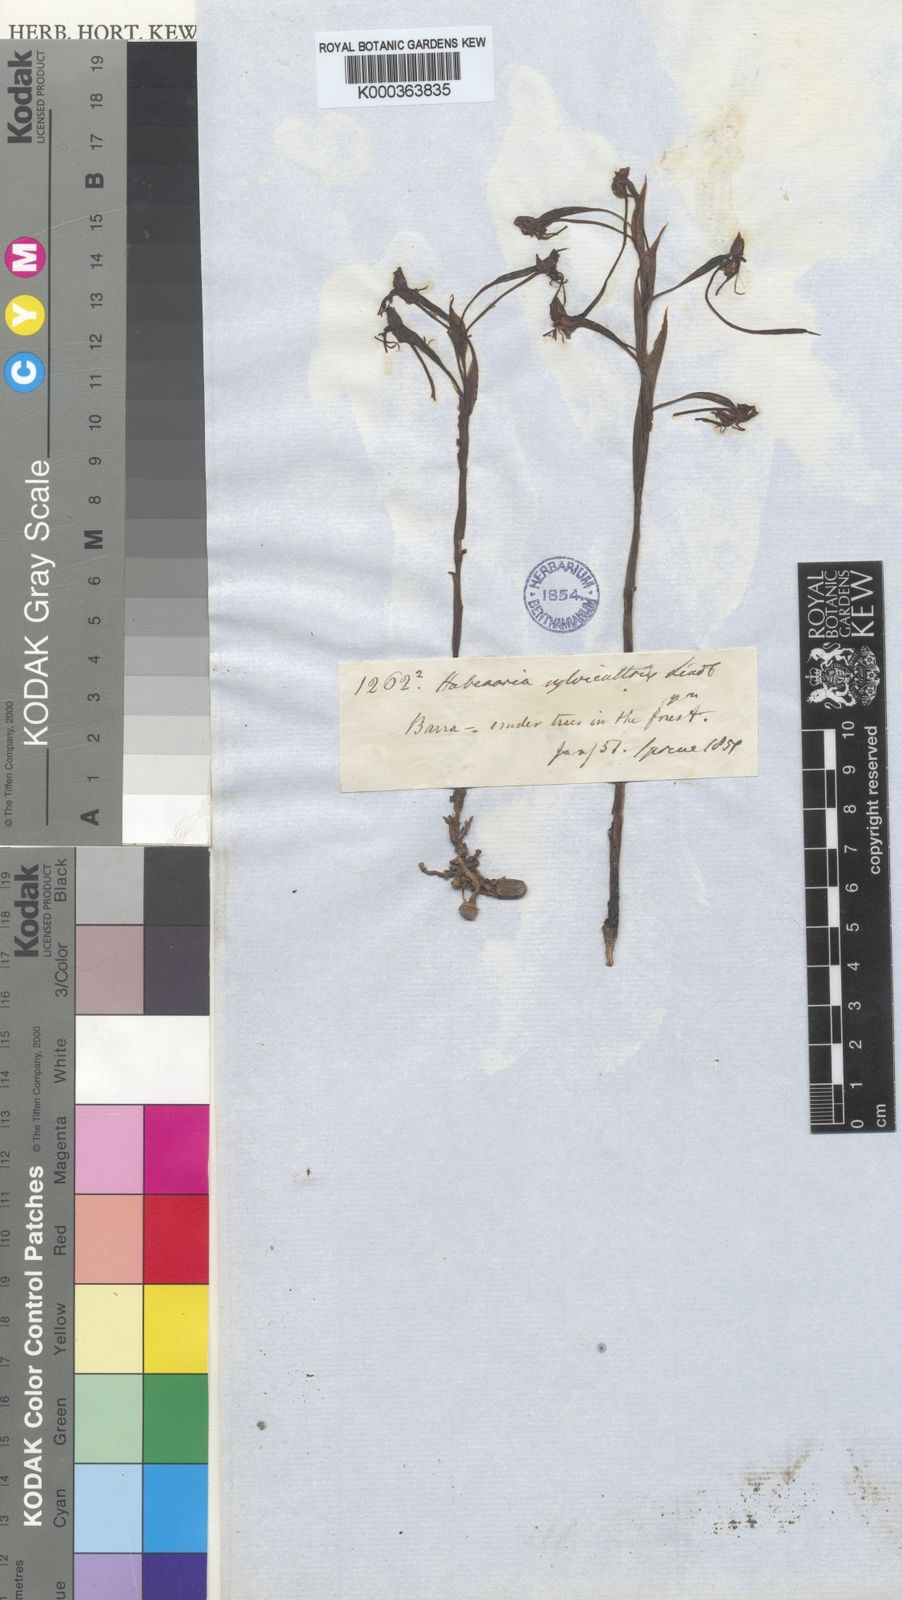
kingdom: Plantae
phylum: Tracheophyta
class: Liliopsida
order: Asparagales
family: Orchidaceae
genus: Habenaria
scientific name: Habenaria dusenii
